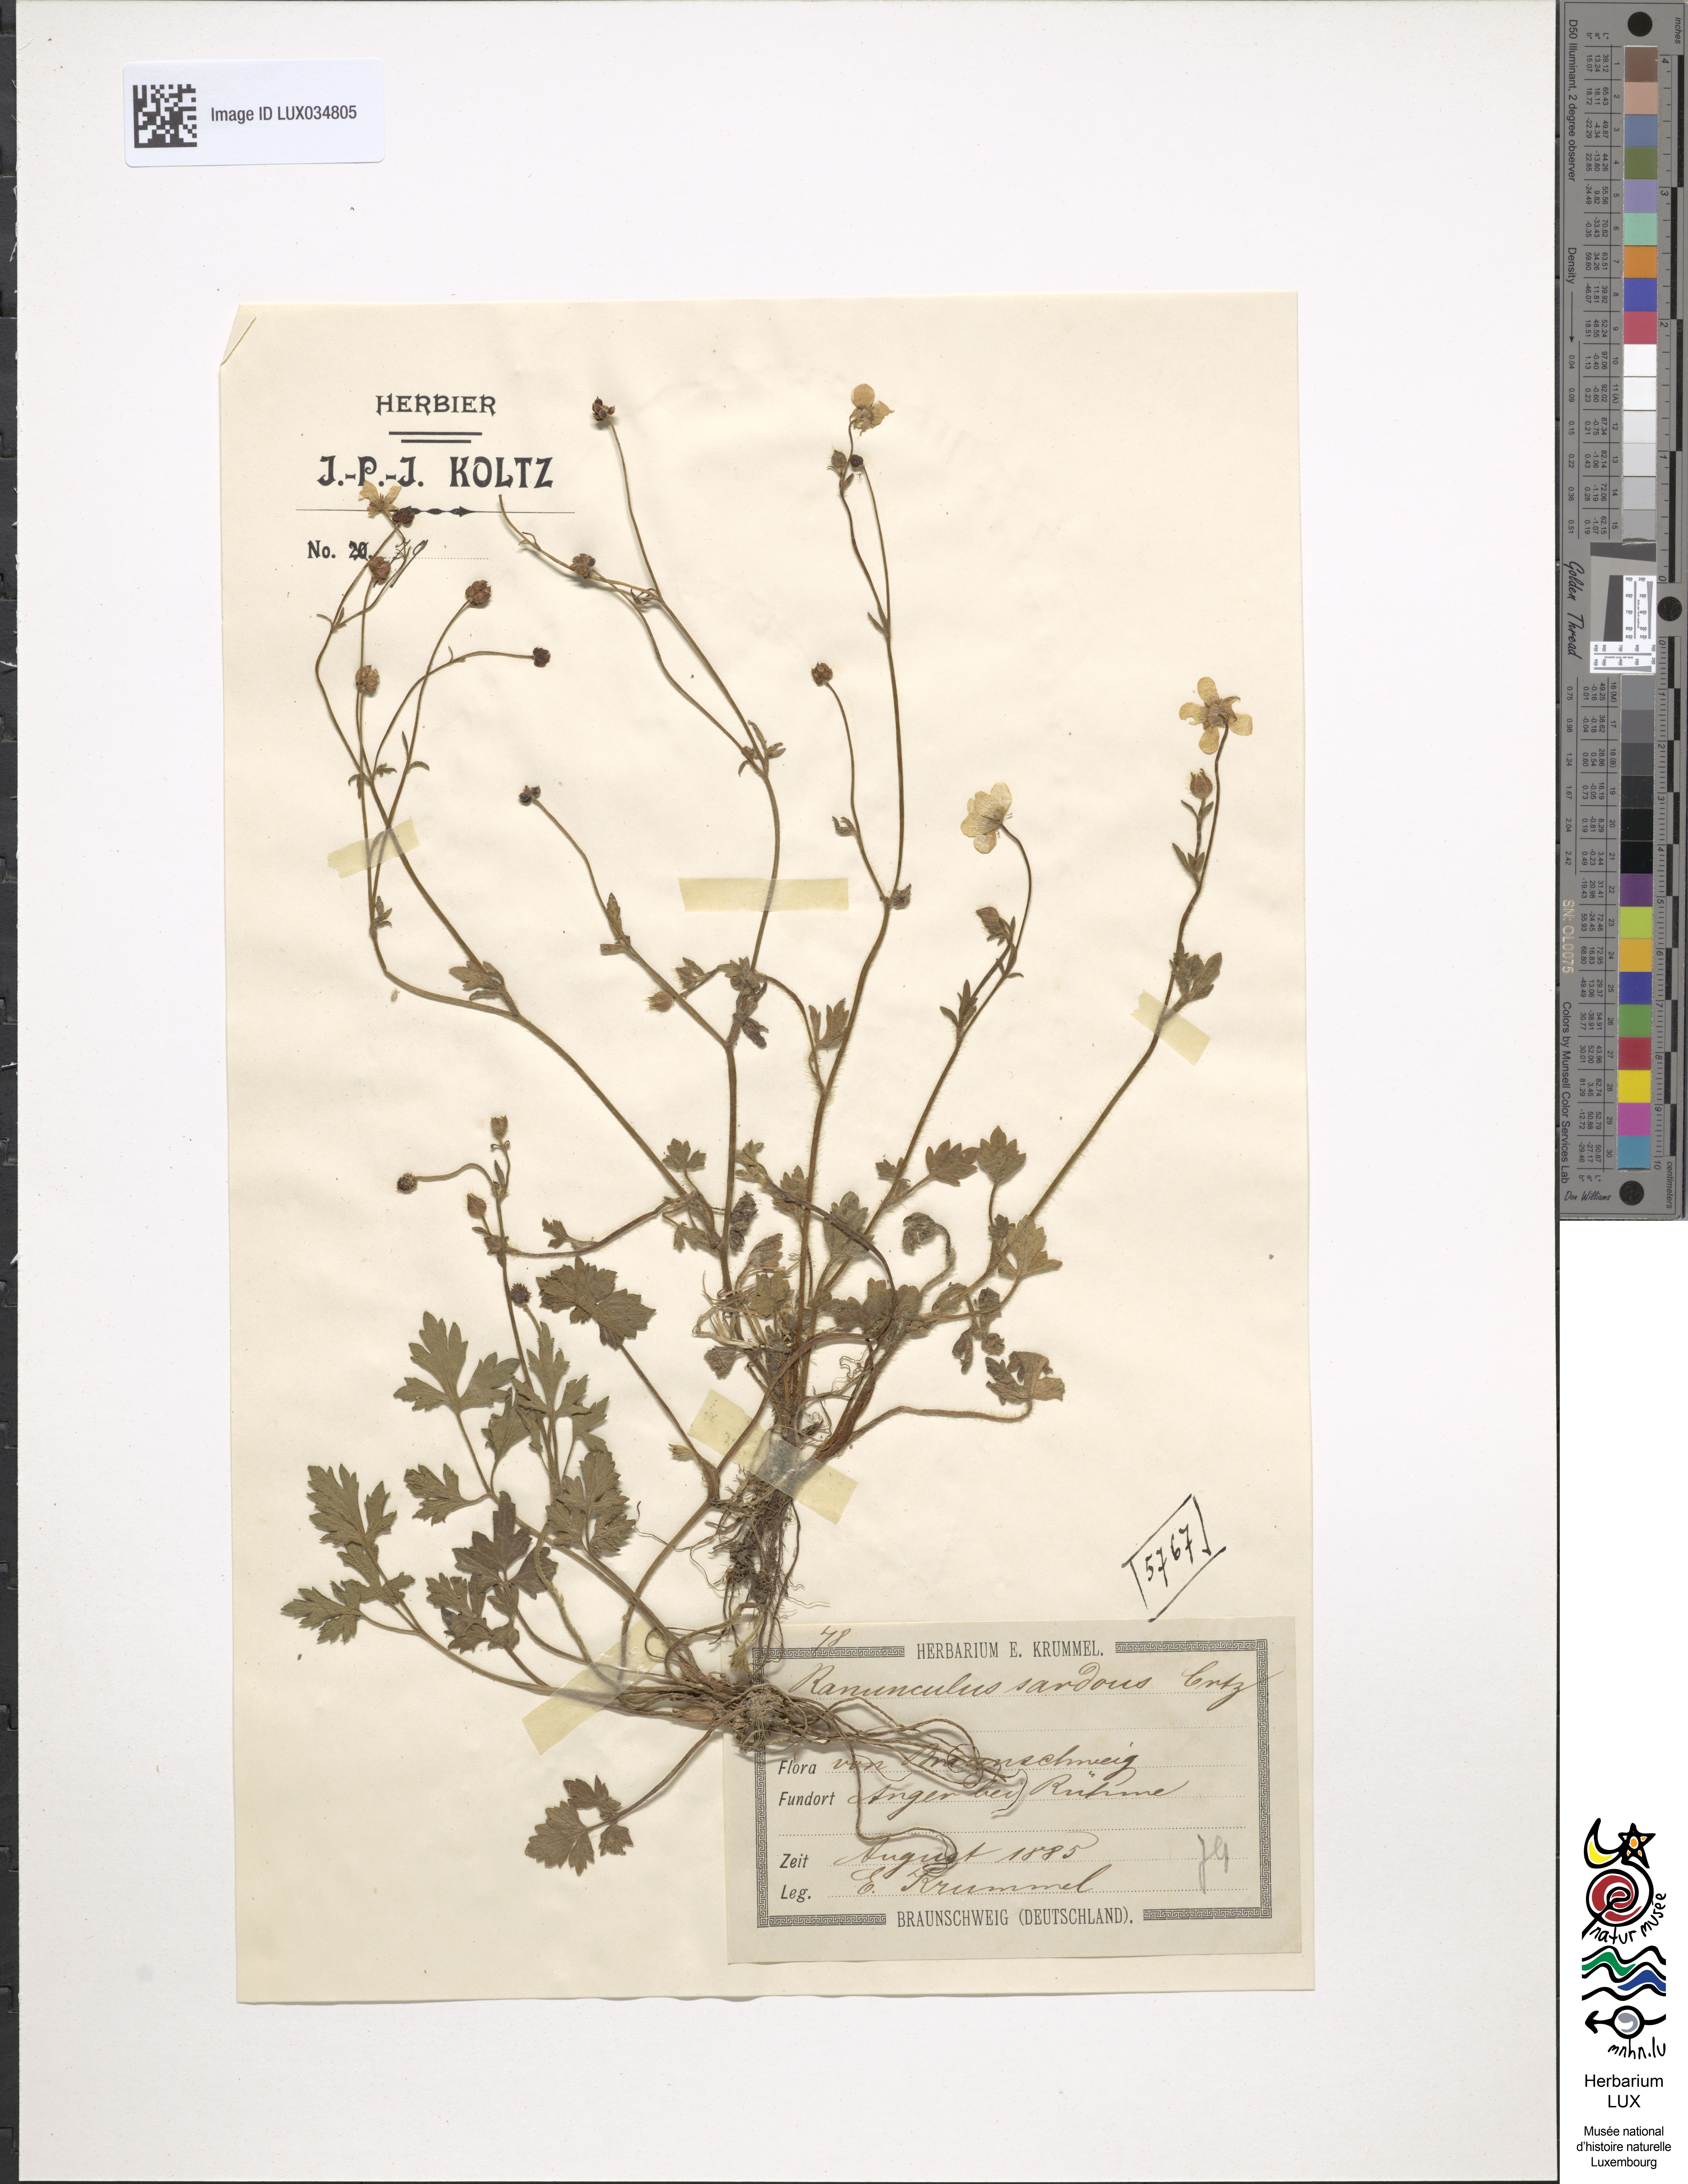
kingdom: Plantae
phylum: Tracheophyta
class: Magnoliopsida
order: Ranunculales
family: Ranunculaceae
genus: Ranunculus
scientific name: Ranunculus sardous
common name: Hairy buttercup
